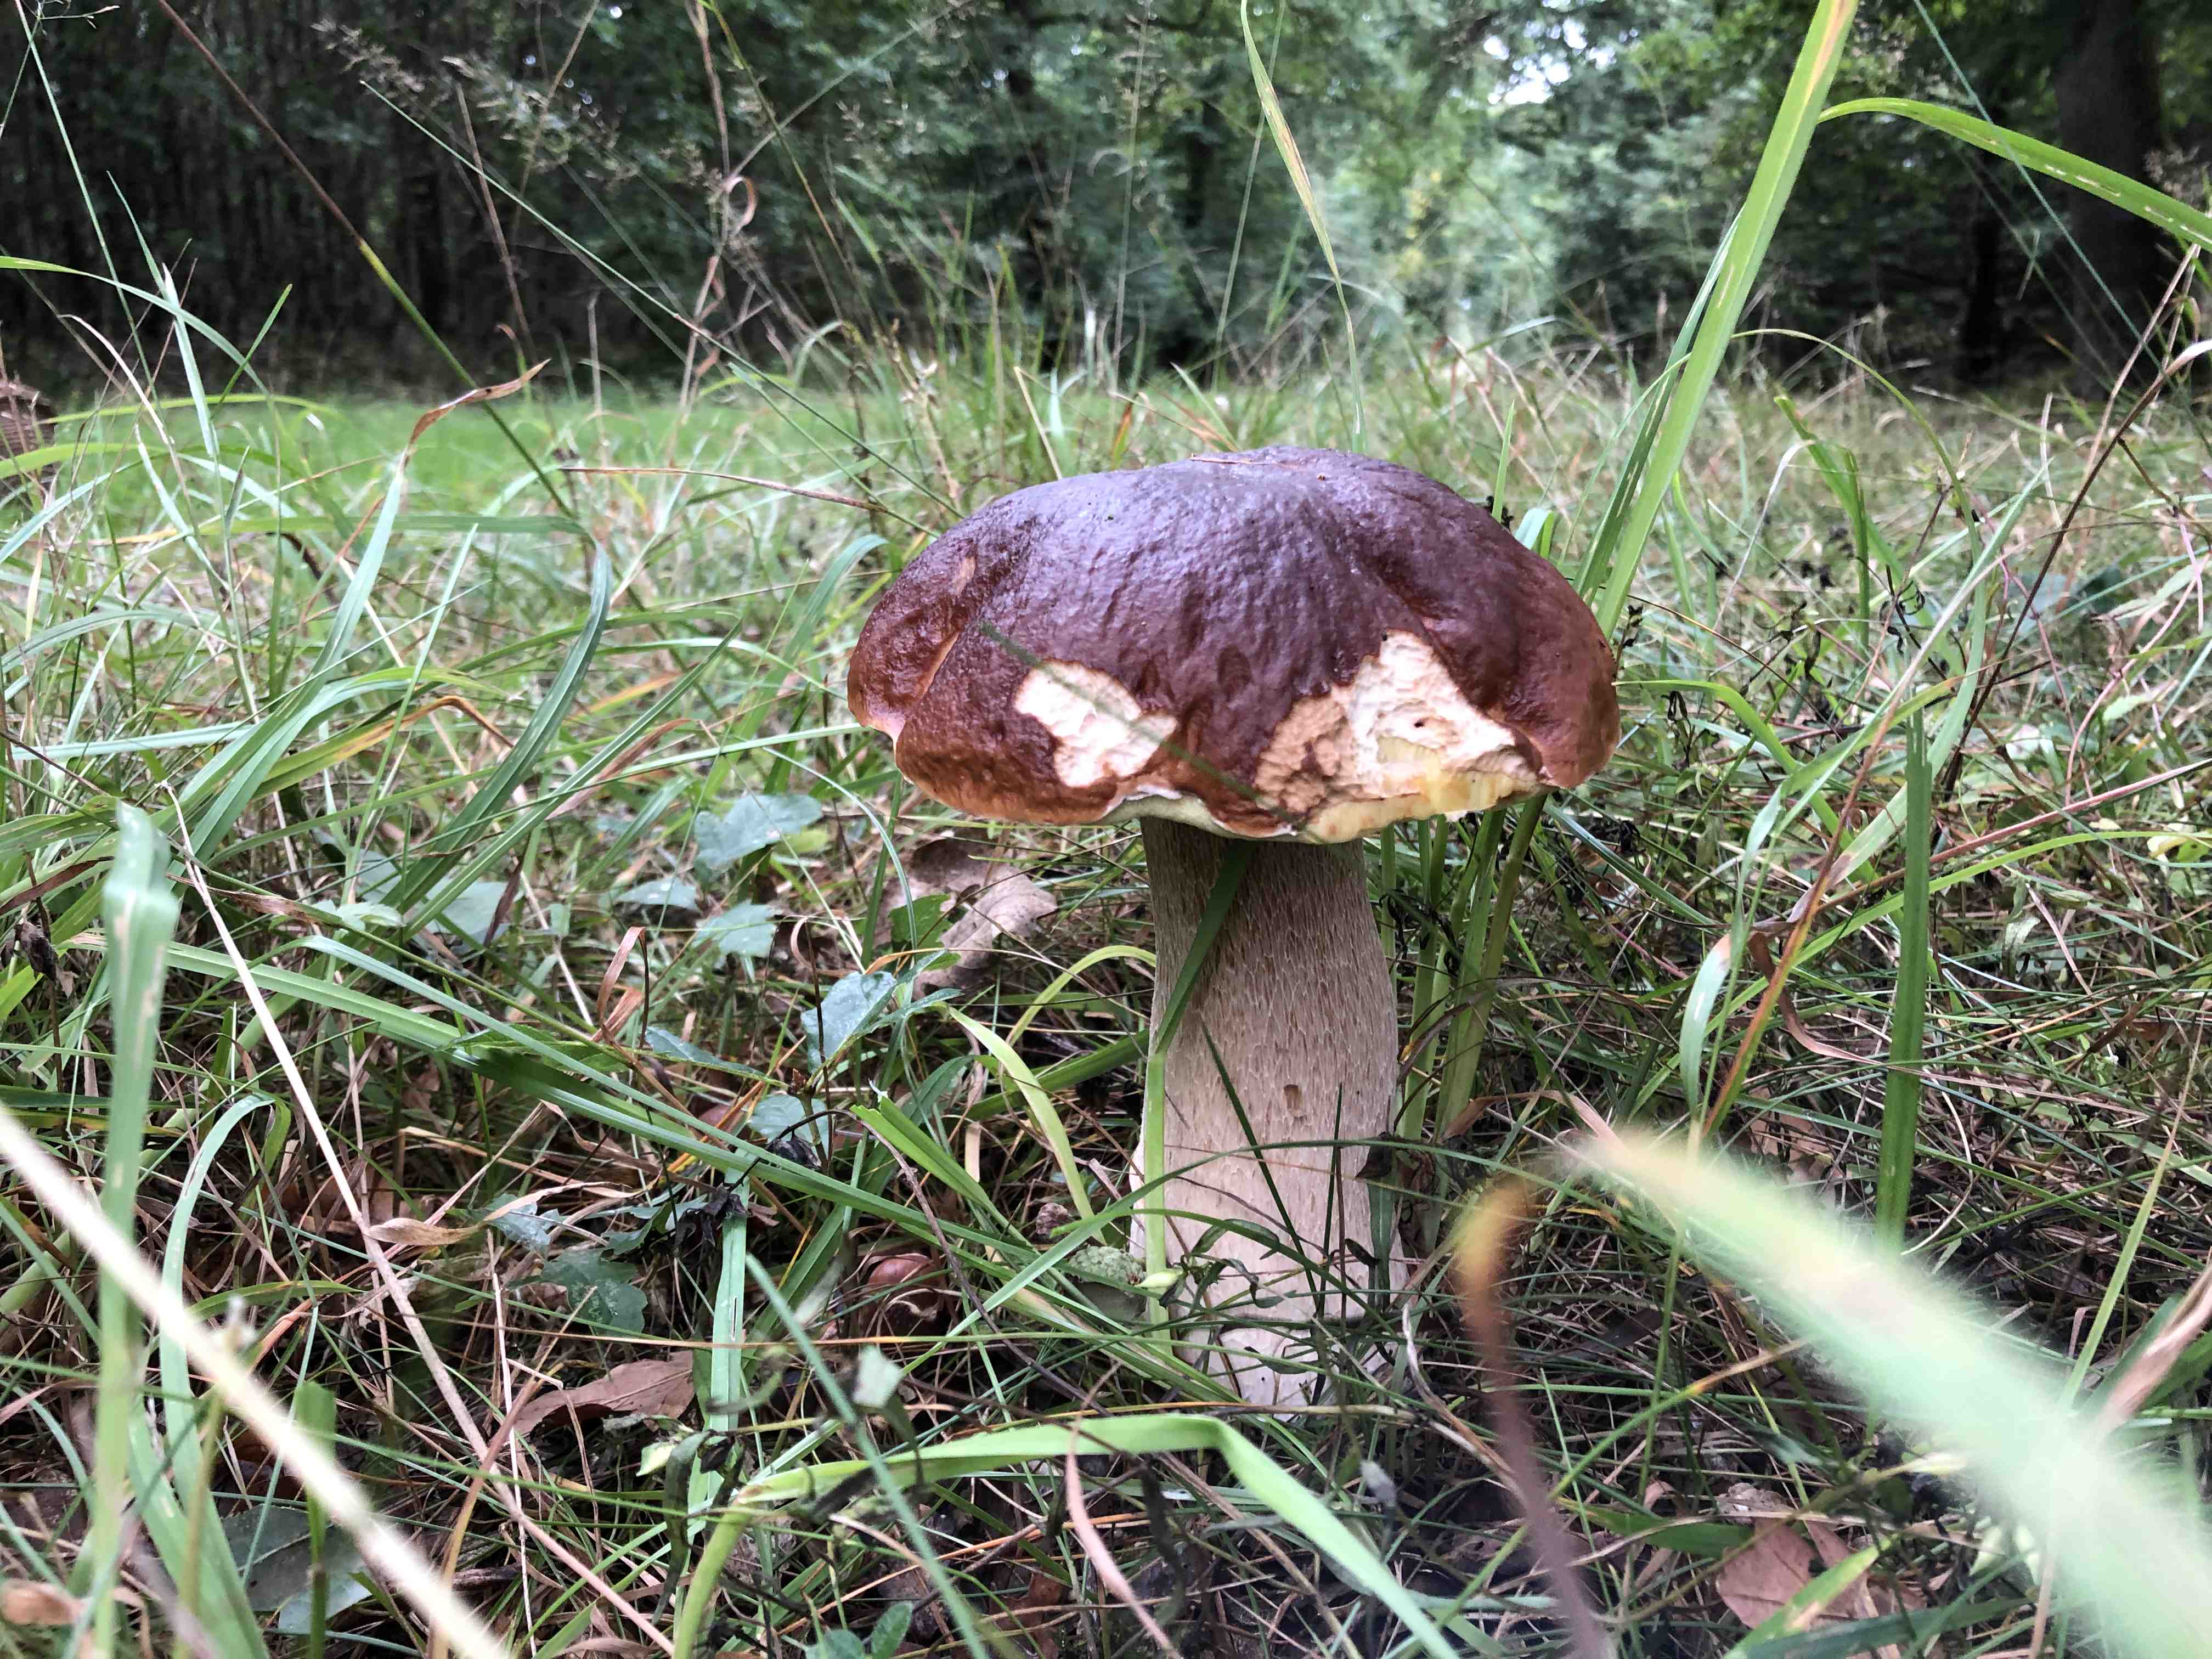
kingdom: Fungi
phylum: Basidiomycota
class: Agaricomycetes
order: Boletales
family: Boletaceae
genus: Boletus
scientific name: Boletus edulis
